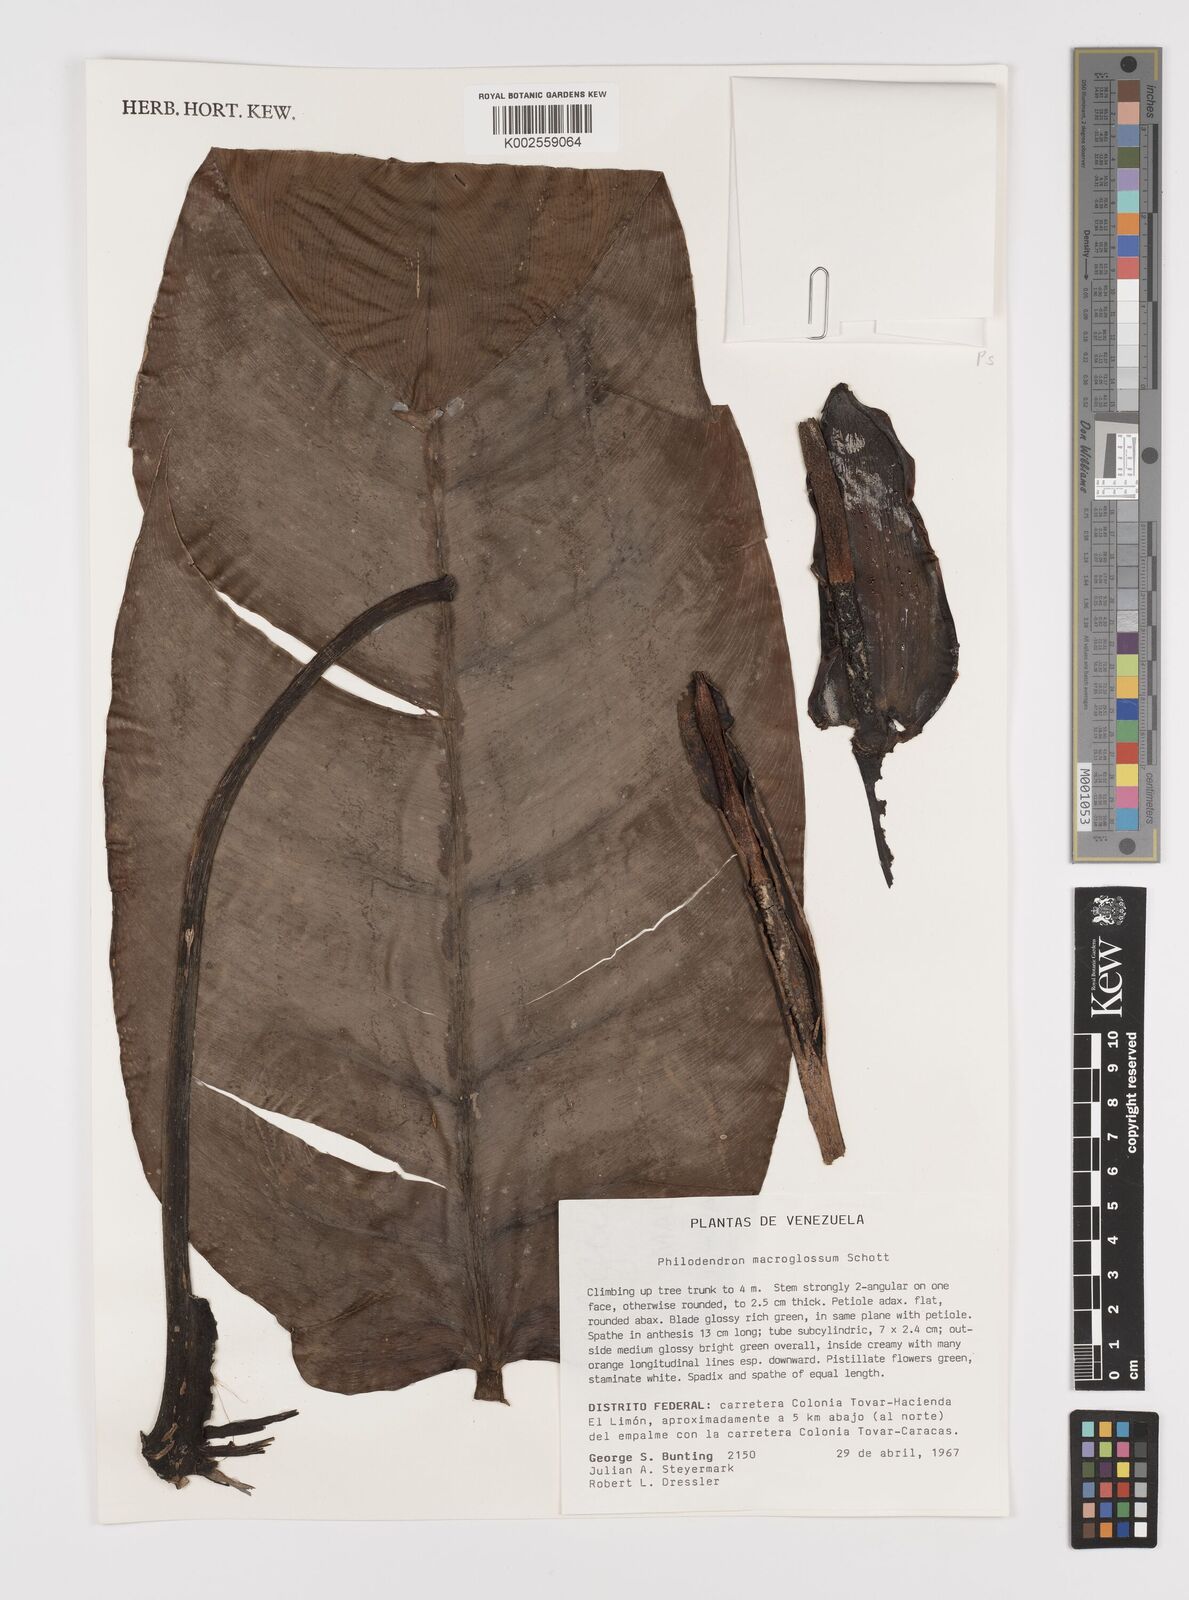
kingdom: Plantae
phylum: Tracheophyta
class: Liliopsida
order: Alismatales
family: Araceae
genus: Philodendron
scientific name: Philodendron macroglossum
